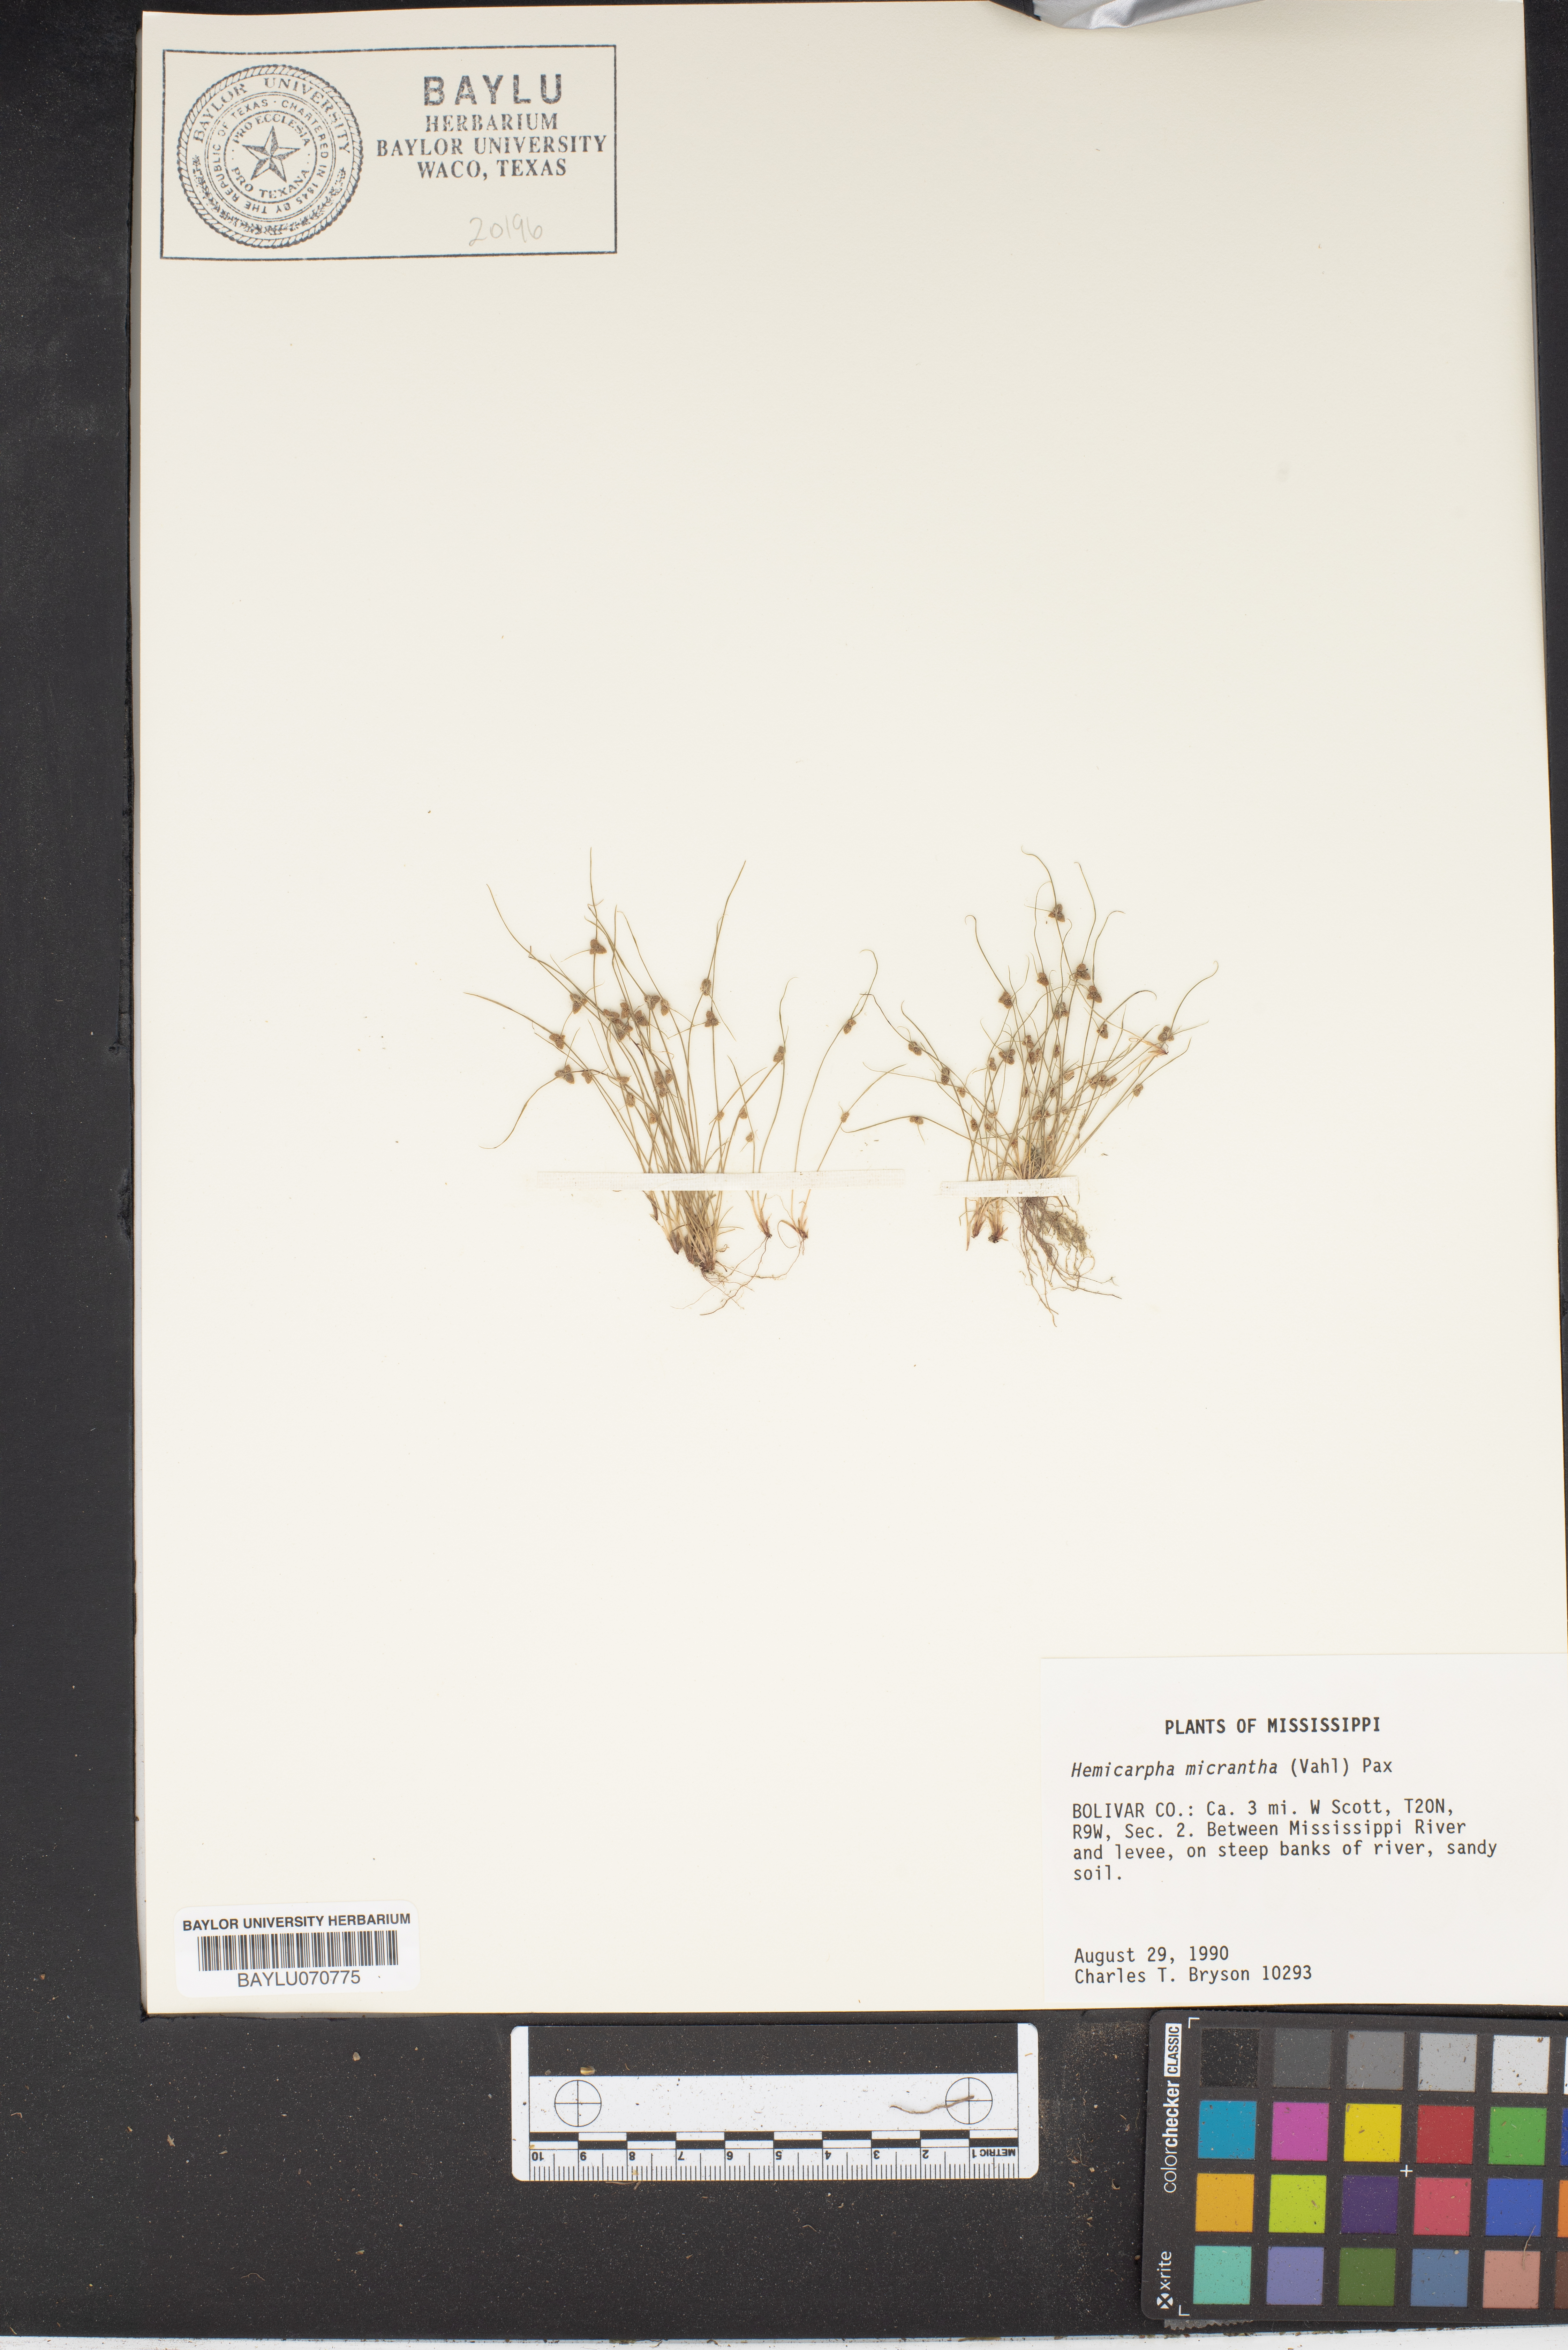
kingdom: Plantae
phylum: Tracheophyta
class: Liliopsida
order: Poales
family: Cyperaceae
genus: Cyperus
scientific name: Cyperus subsquarrosus
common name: Dwarf bulrush
